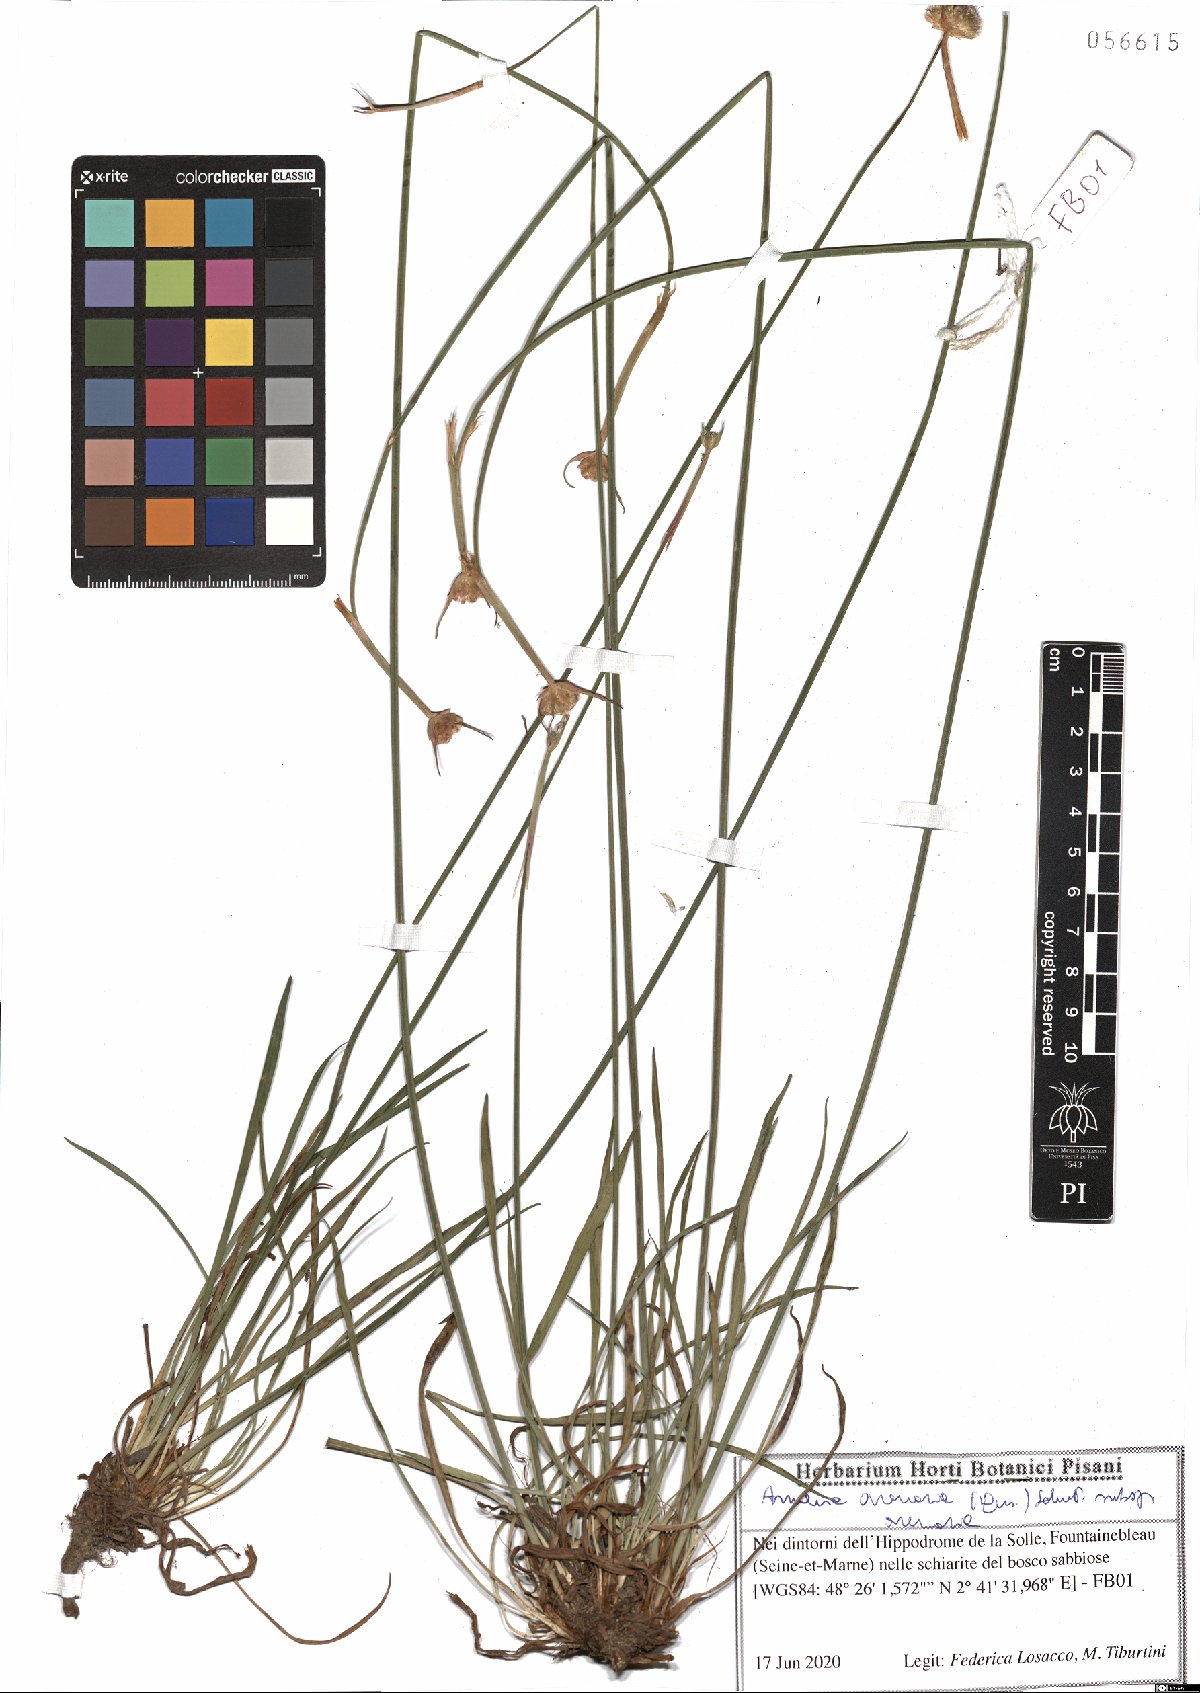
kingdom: Plantae
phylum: Tracheophyta
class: Magnoliopsida
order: Caryophyllales
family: Plumbaginaceae
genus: Armeria
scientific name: Armeria arenaria
